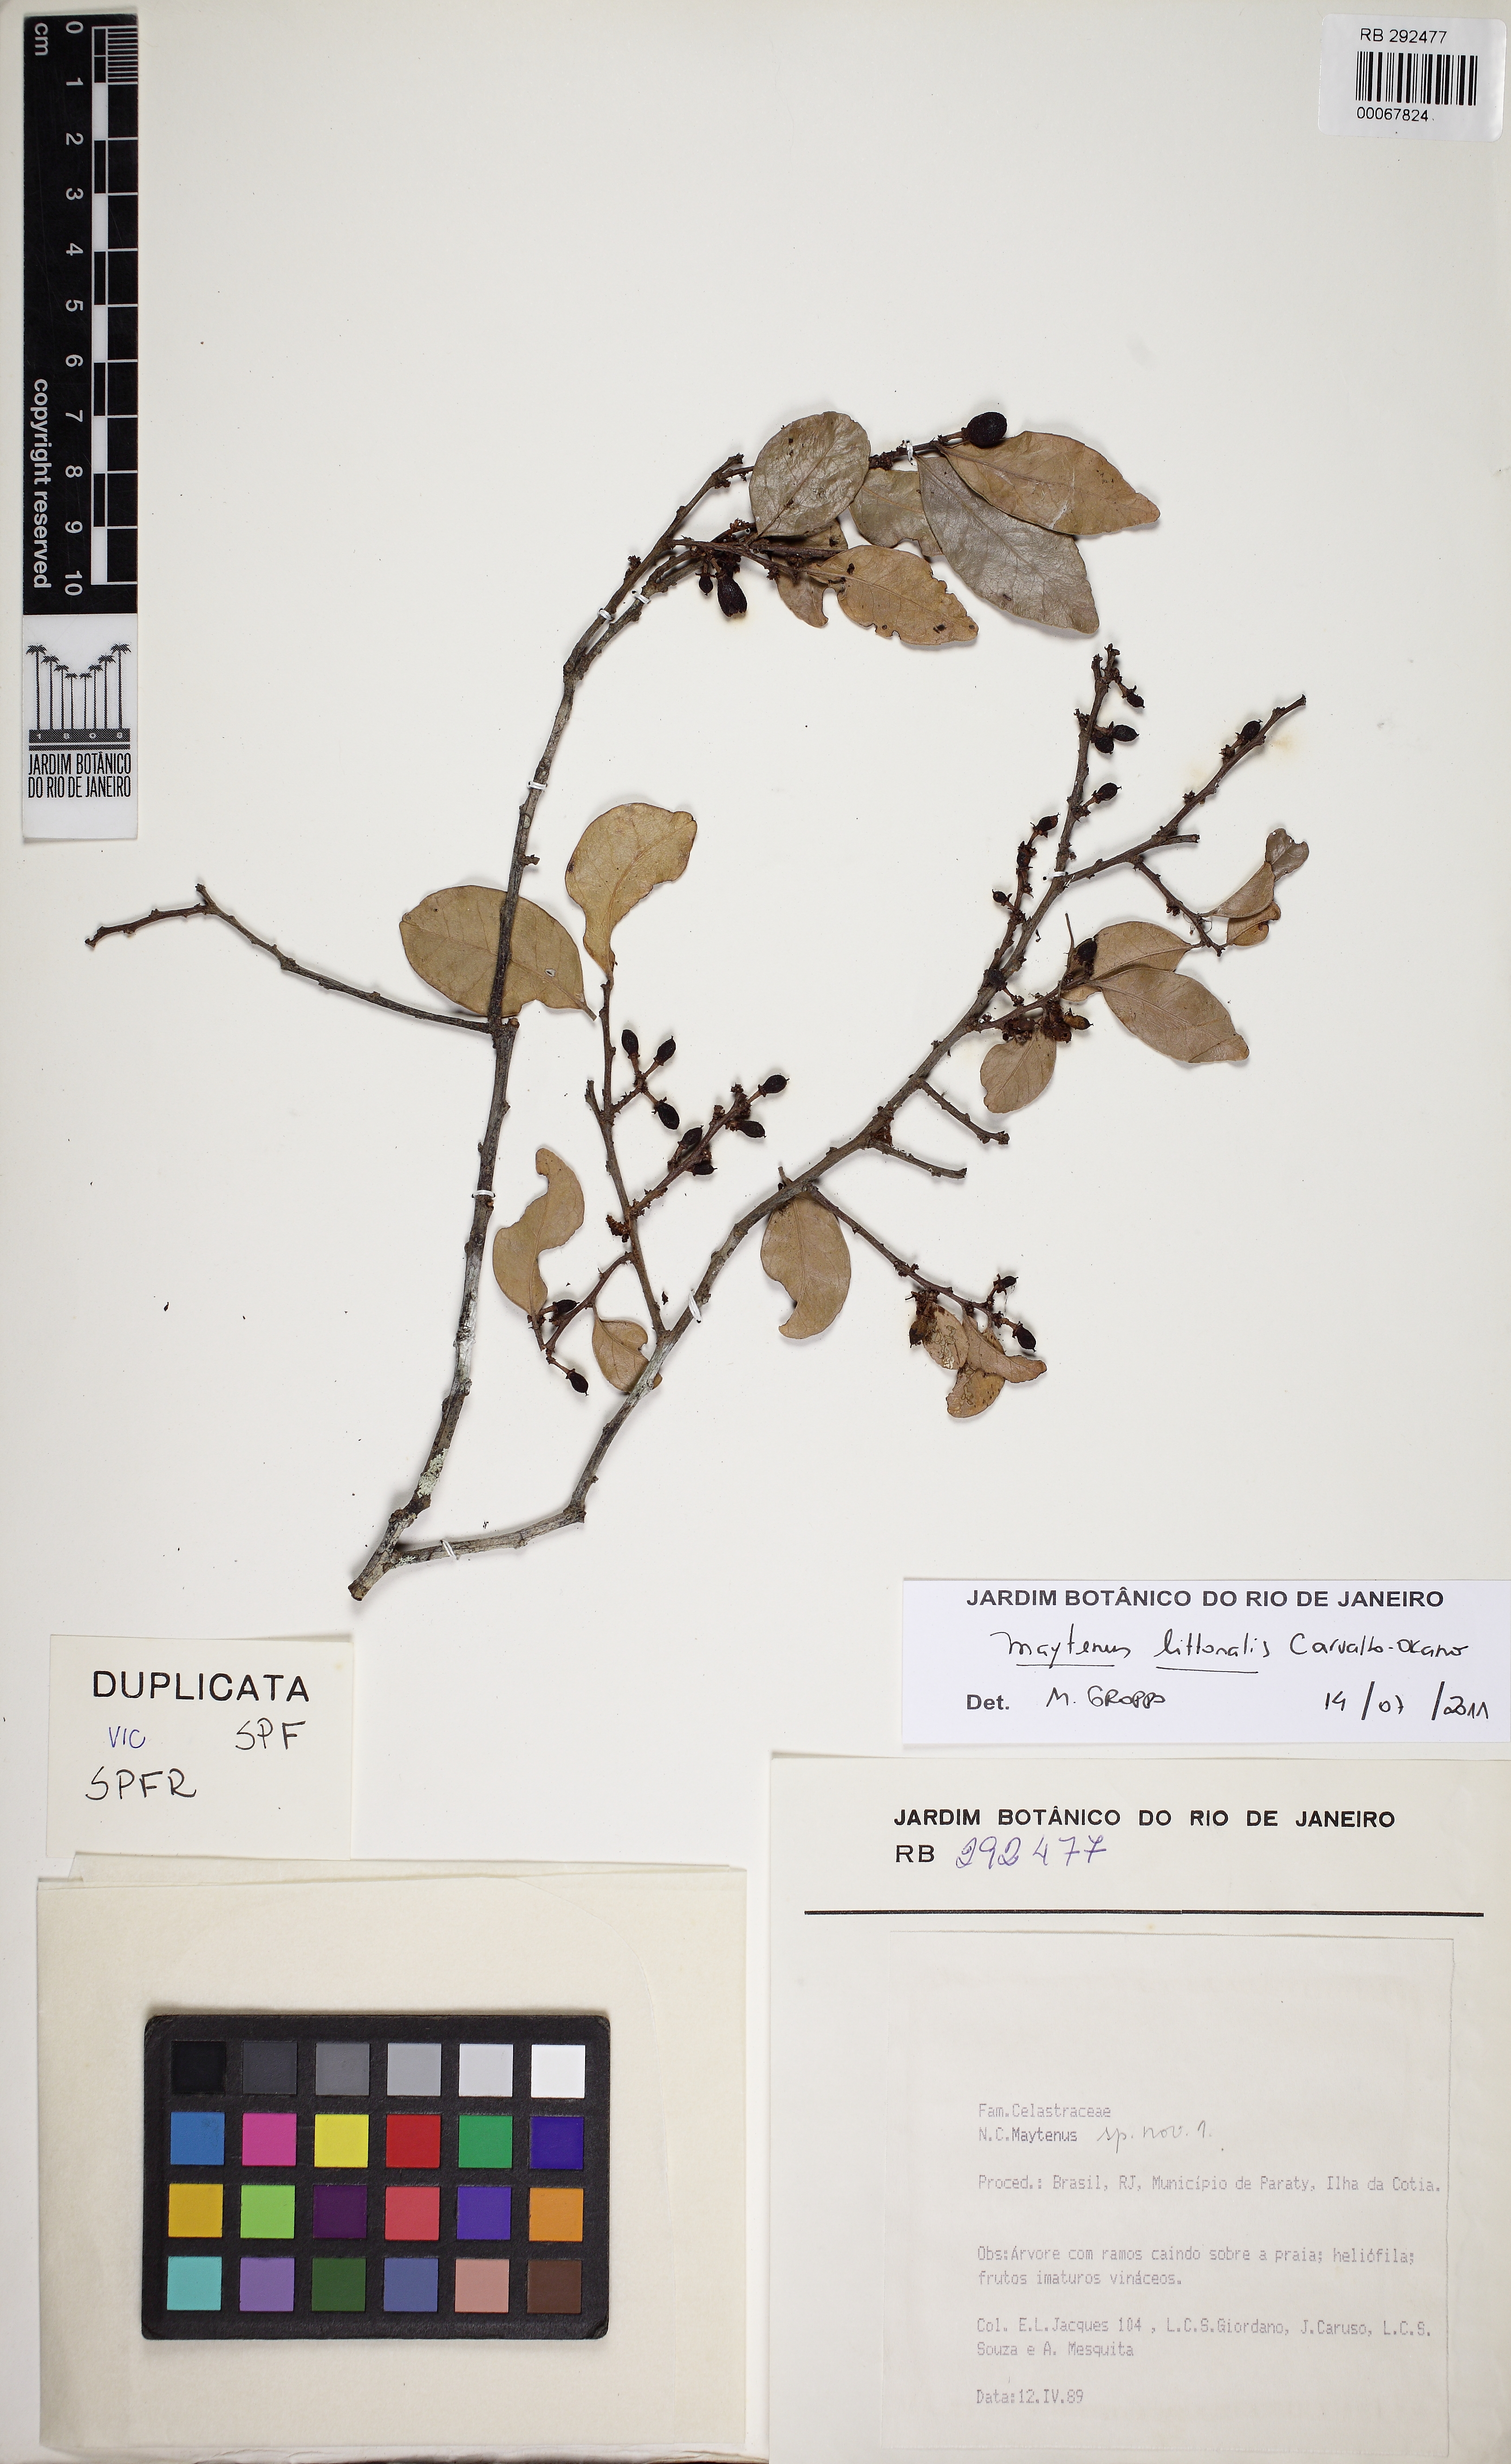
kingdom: Plantae
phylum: Tracheophyta
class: Magnoliopsida
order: Celastrales
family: Celastraceae
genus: Monteverdia
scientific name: Monteverdia littoralis
